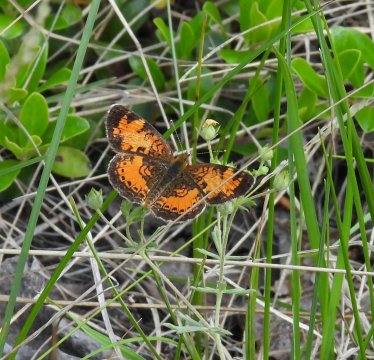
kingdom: Animalia
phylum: Arthropoda
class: Insecta
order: Lepidoptera
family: Nymphalidae
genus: Phyciodes
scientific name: Phyciodes tharos
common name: Northern Crescent
